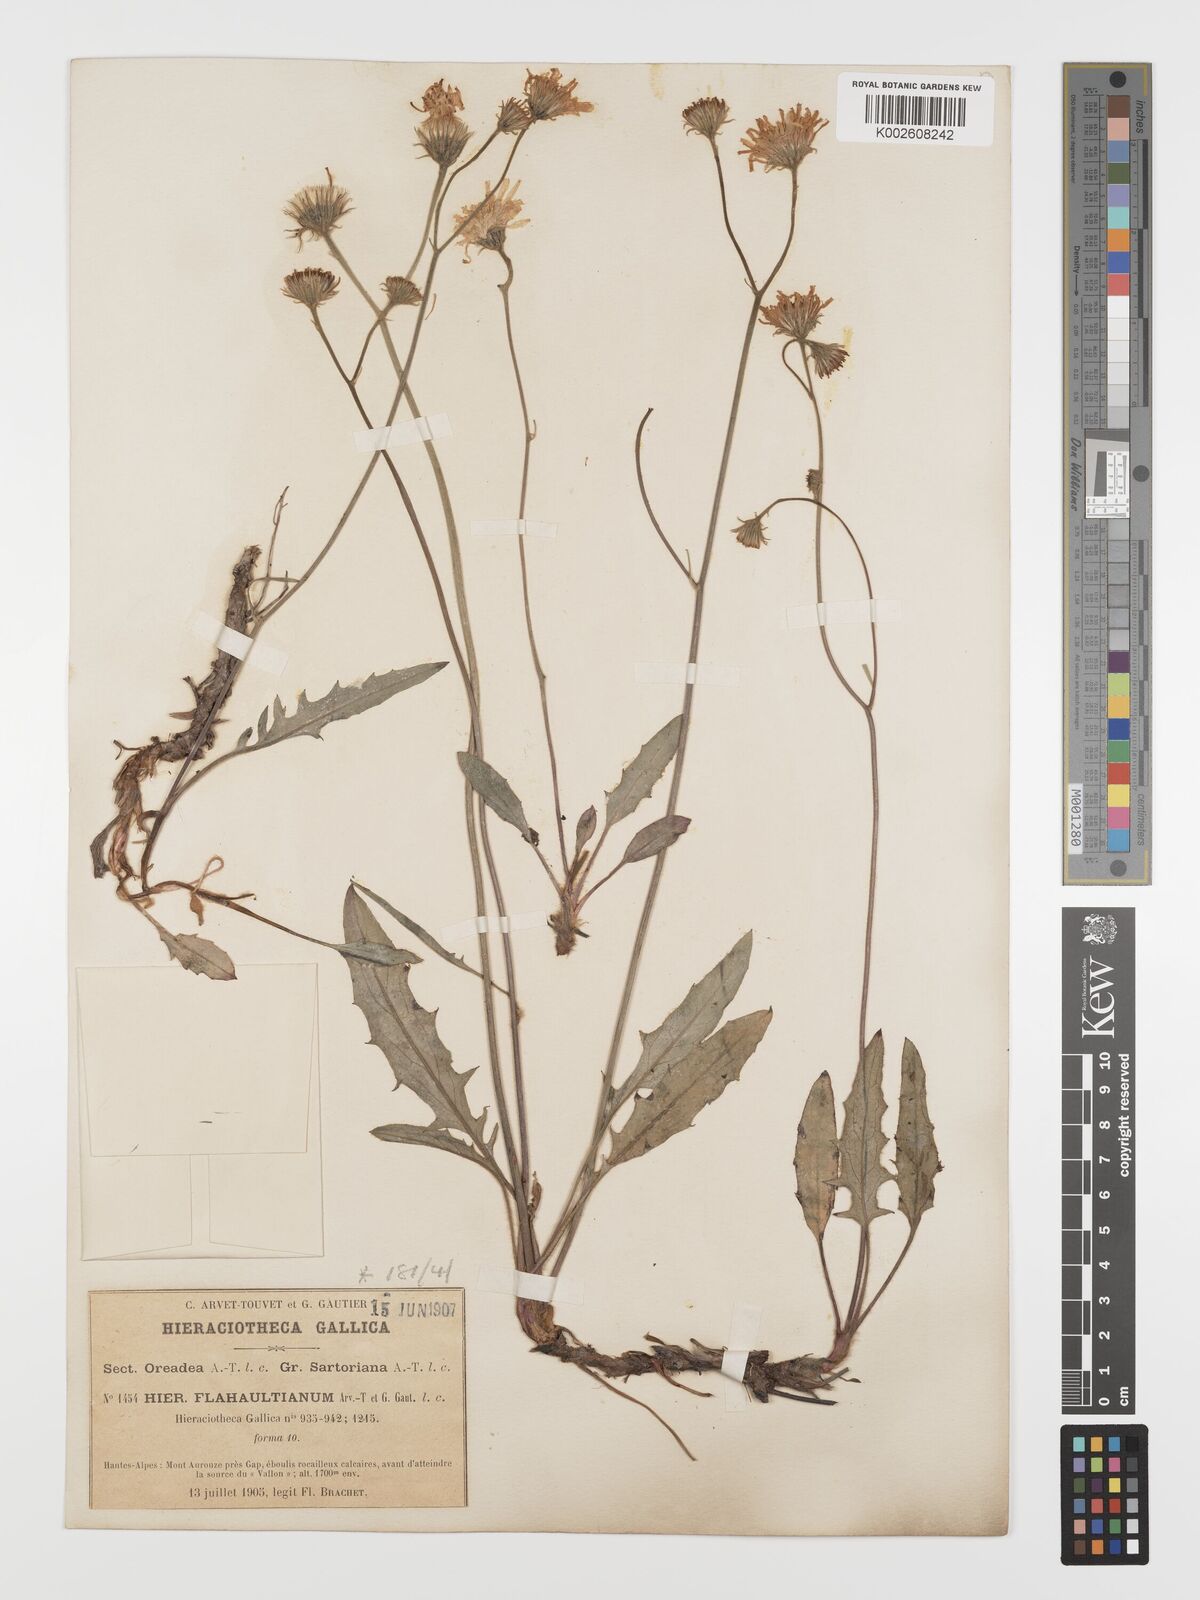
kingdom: Plantae
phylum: Tracheophyta
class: Magnoliopsida
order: Asterales
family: Asteraceae
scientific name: Asteraceae
